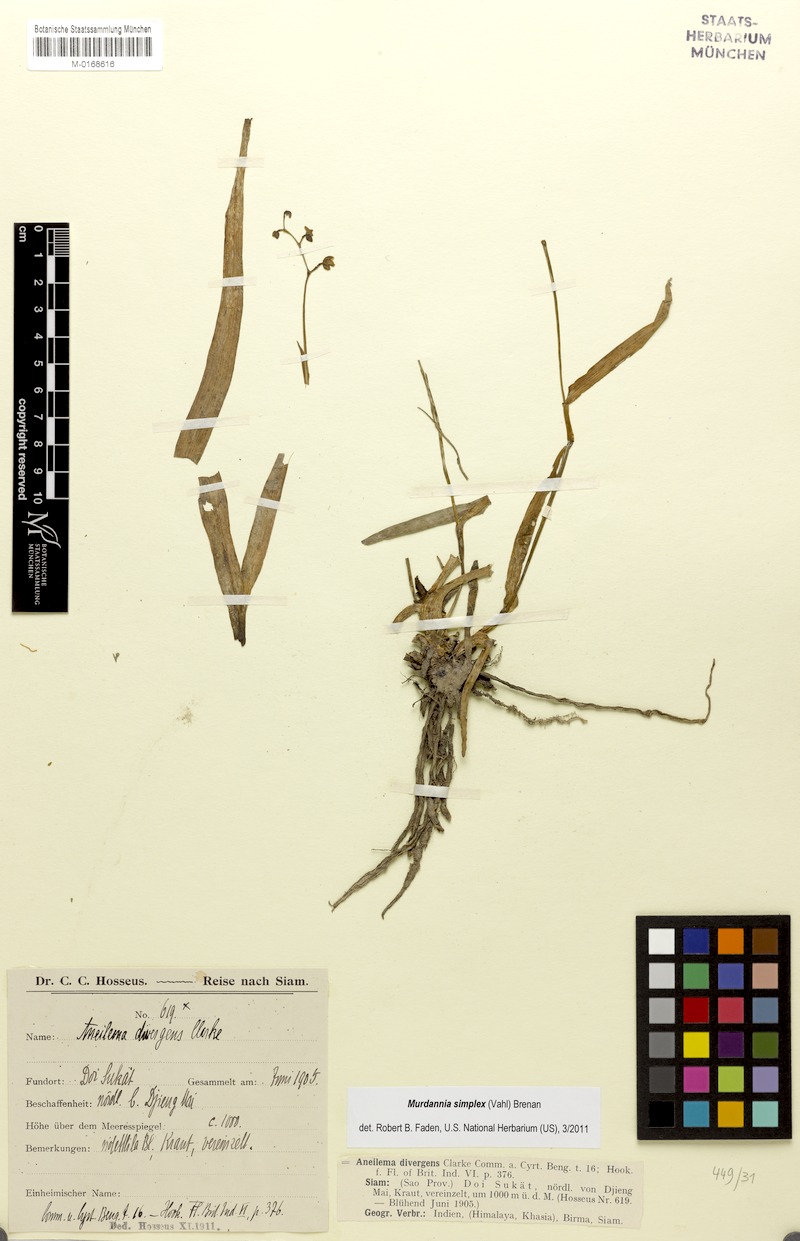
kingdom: Plantae
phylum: Tracheophyta
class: Liliopsida
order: Commelinales
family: Commelinaceae
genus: Murdannia
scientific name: Murdannia simplex
